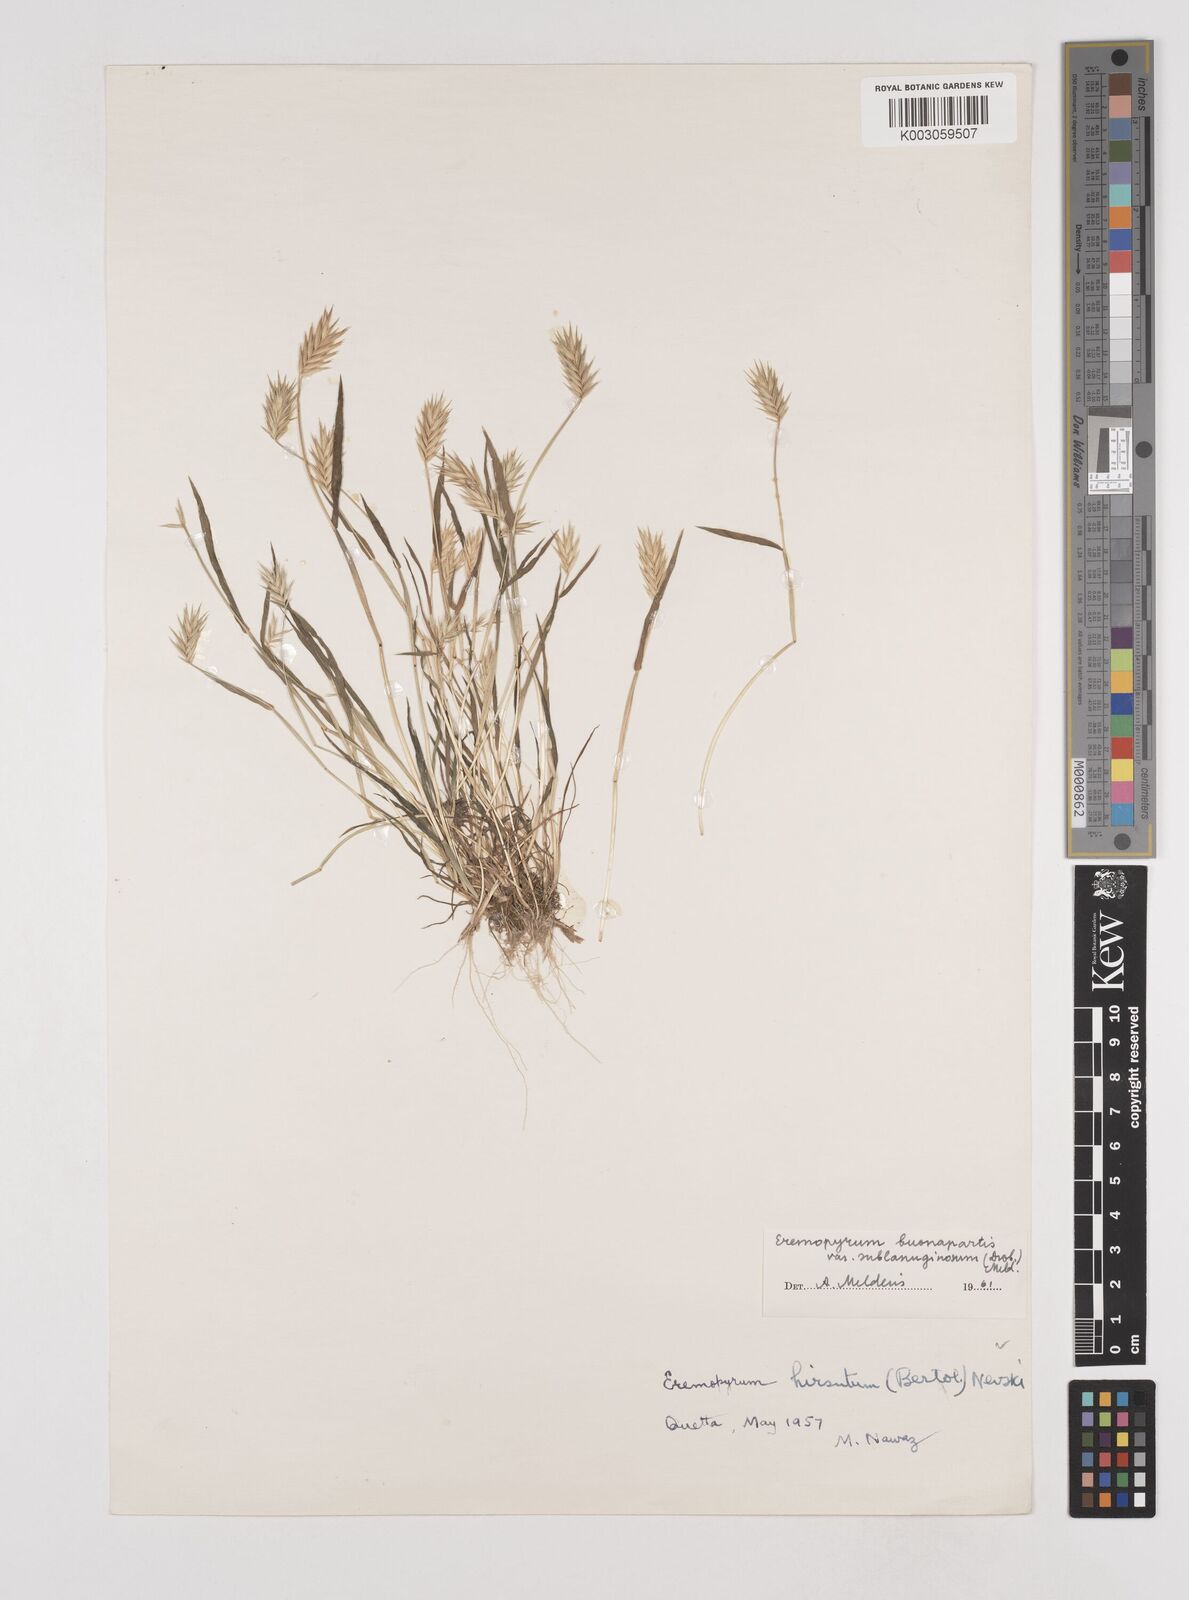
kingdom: Plantae
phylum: Tracheophyta
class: Liliopsida
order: Poales
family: Poaceae
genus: Eremopyrum
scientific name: Eremopyrum bonaepartis
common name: Tapertip false wheatgrass
